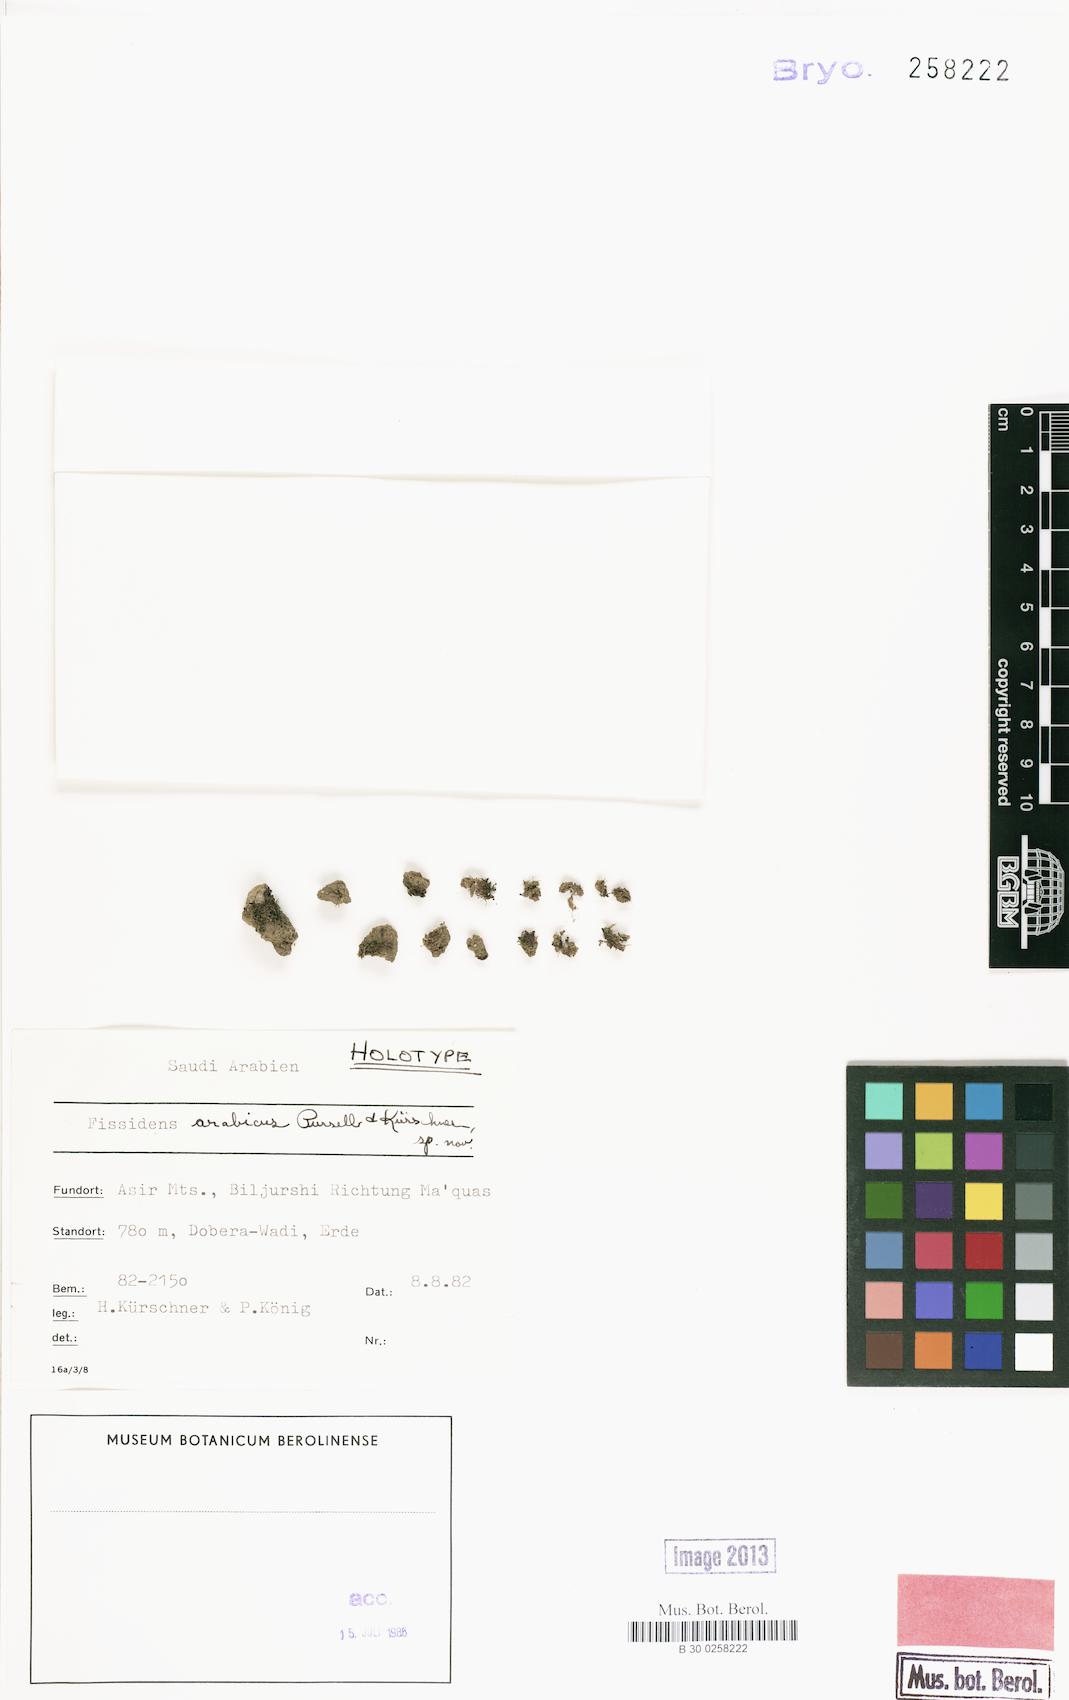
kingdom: Plantae
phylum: Bryophyta
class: Bryopsida
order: Dicranales
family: Fissidentaceae
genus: Fissidens
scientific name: Fissidens sciophyllus
